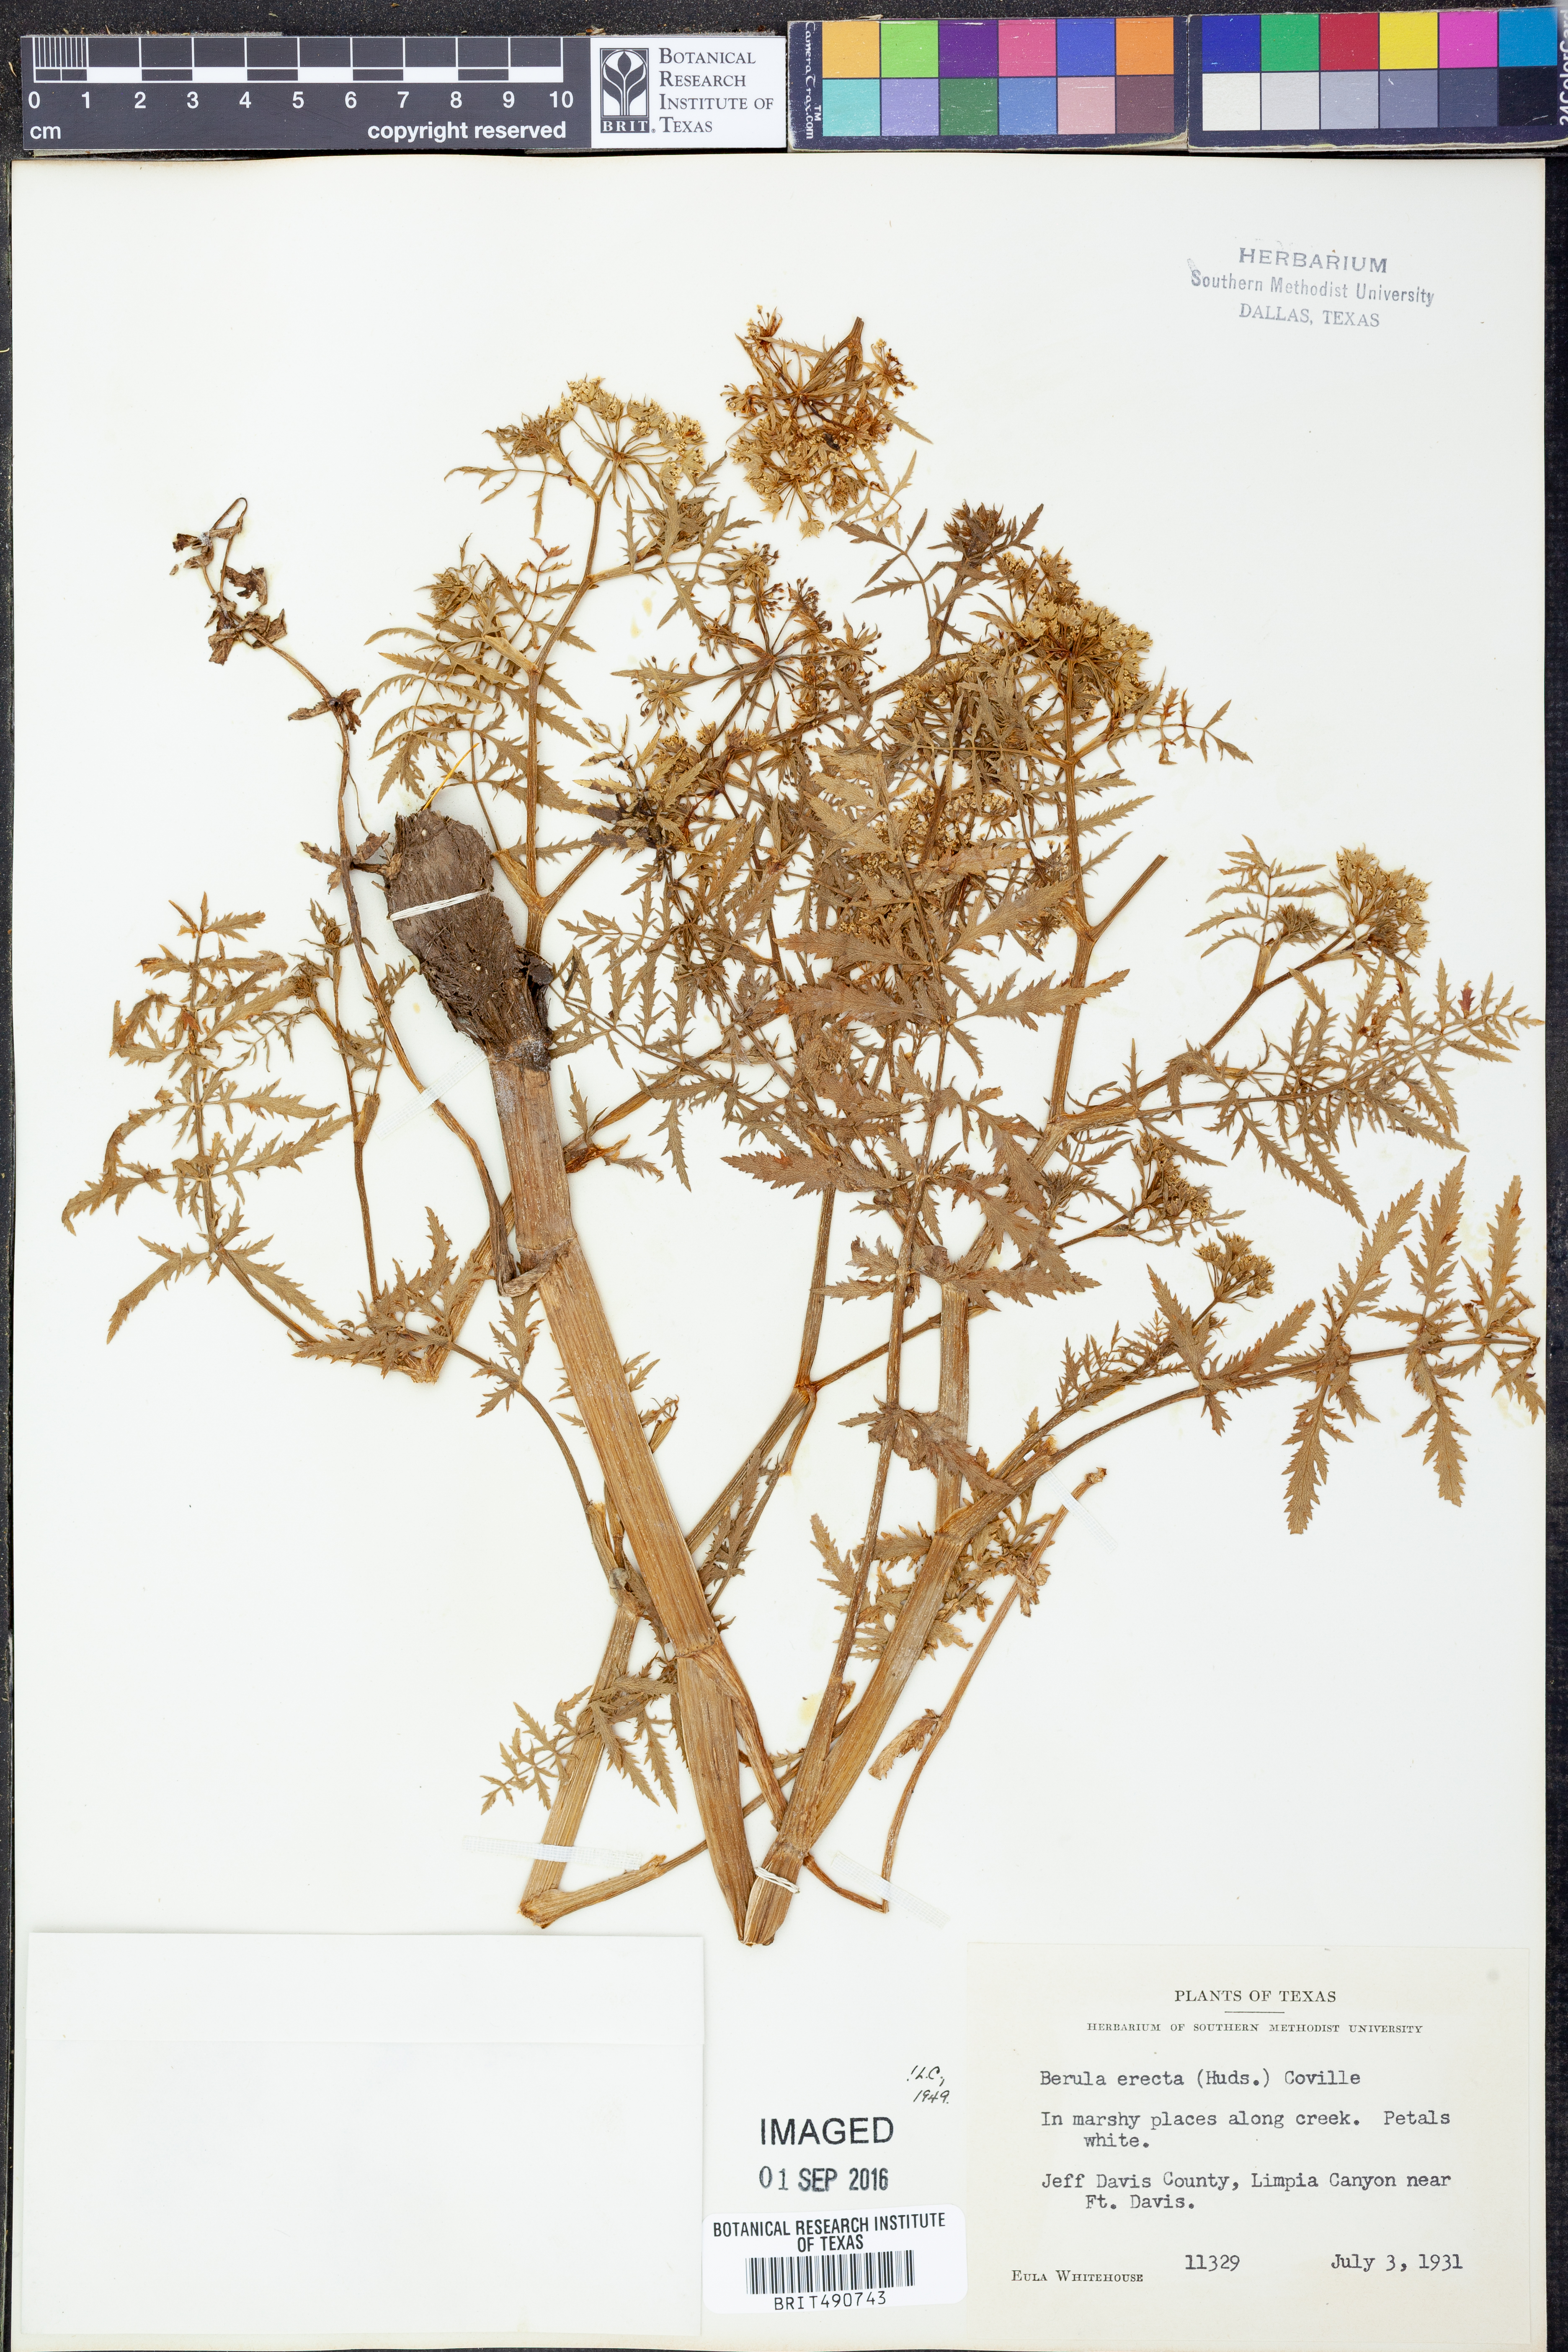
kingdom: Plantae
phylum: Tracheophyta
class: Magnoliopsida
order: Apiales
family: Apiaceae
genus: Berula
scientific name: Berula erecta
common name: Lesser water-parsnip
